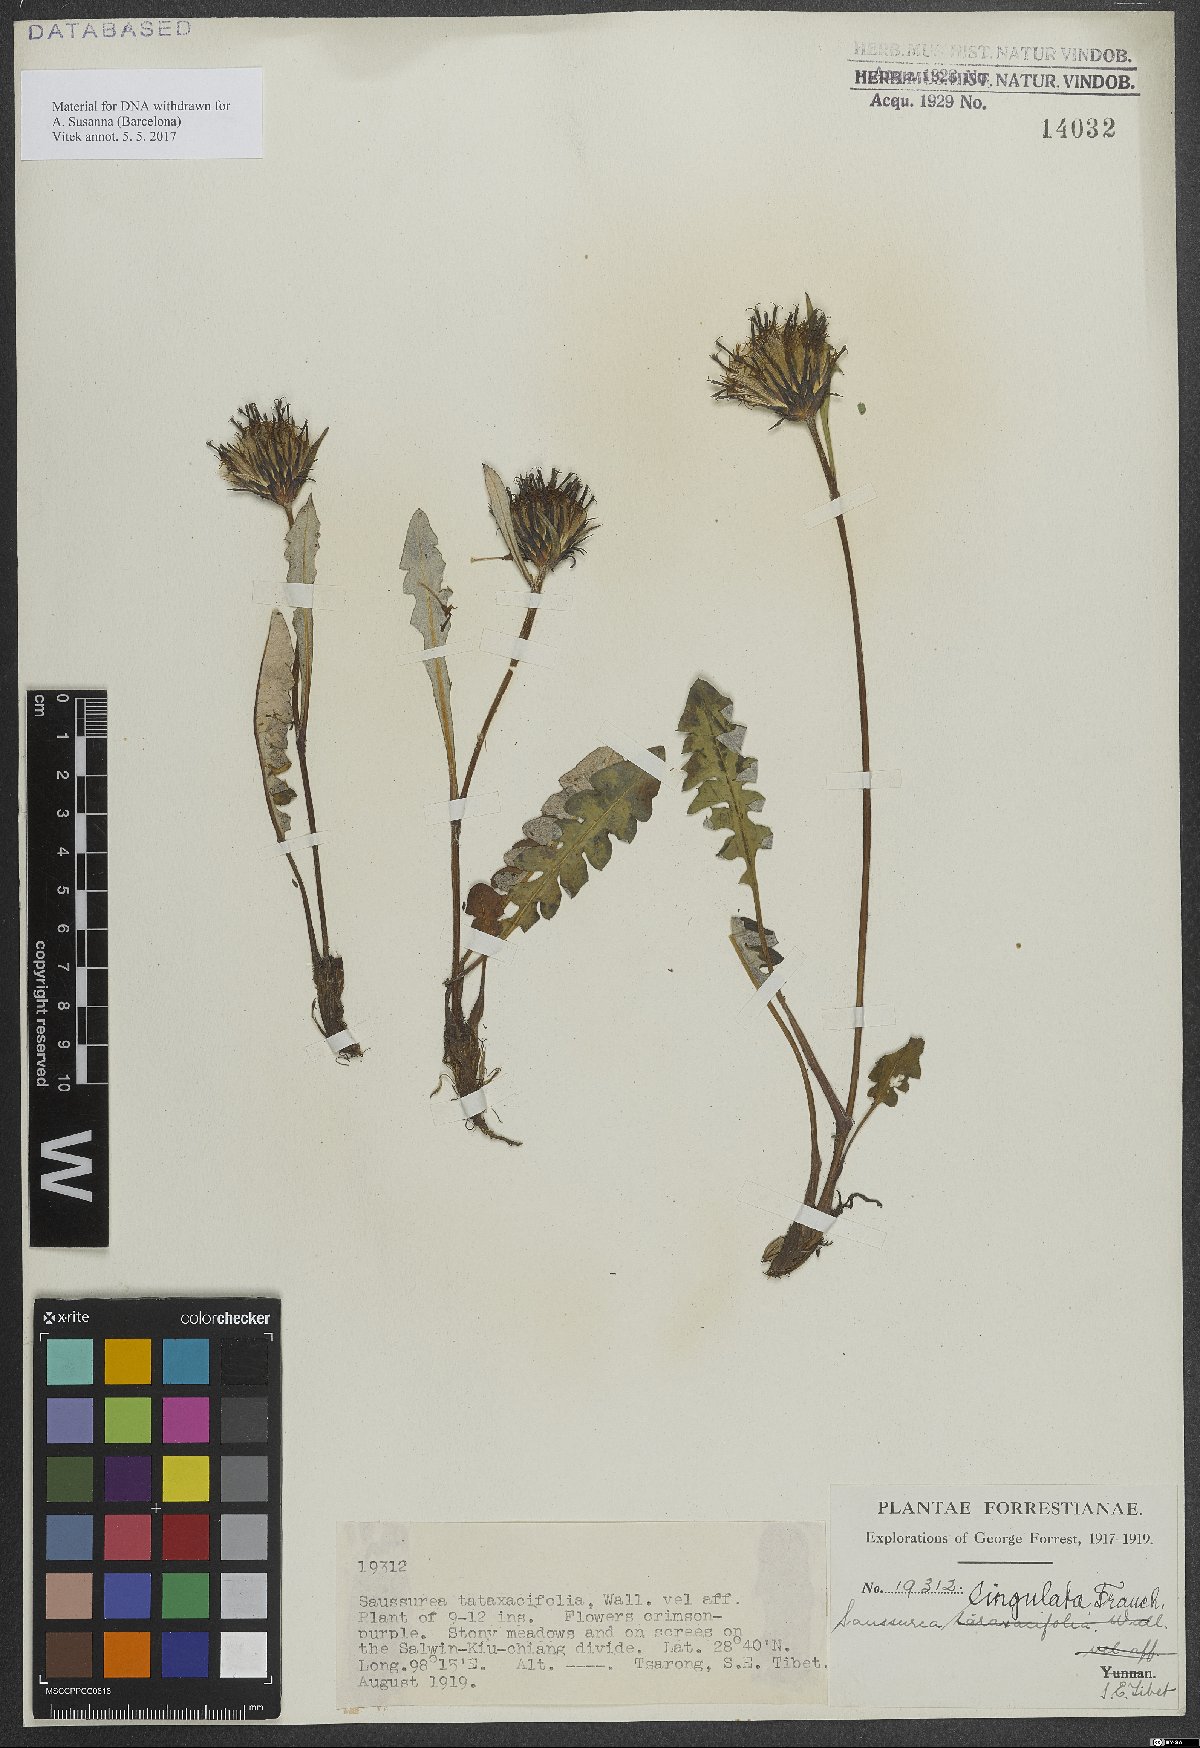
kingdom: Plantae
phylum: Tracheophyta
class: Magnoliopsida
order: Asterales
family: Asteraceae
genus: Saussurea
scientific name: Saussurea lingulata
